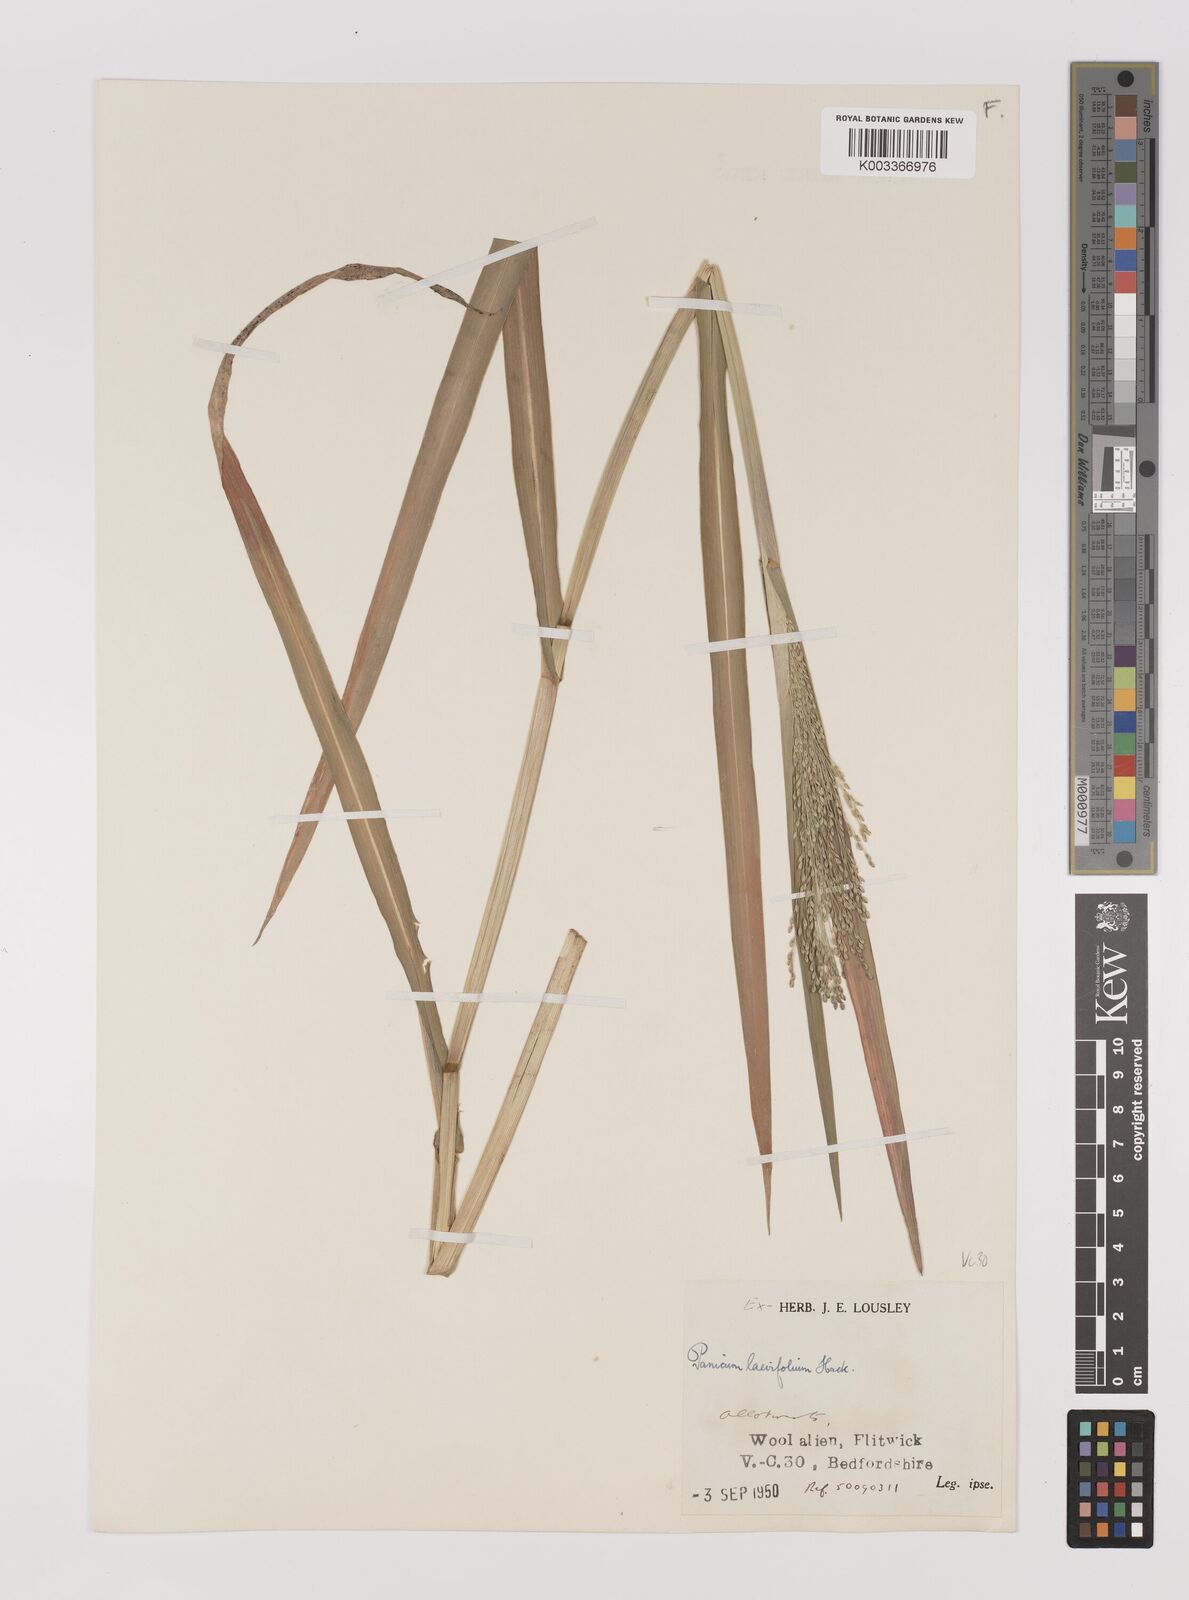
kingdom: Plantae
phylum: Tracheophyta
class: Liliopsida
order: Poales
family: Poaceae
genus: Panicum
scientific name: Panicum schinzii
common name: Sweet grass
